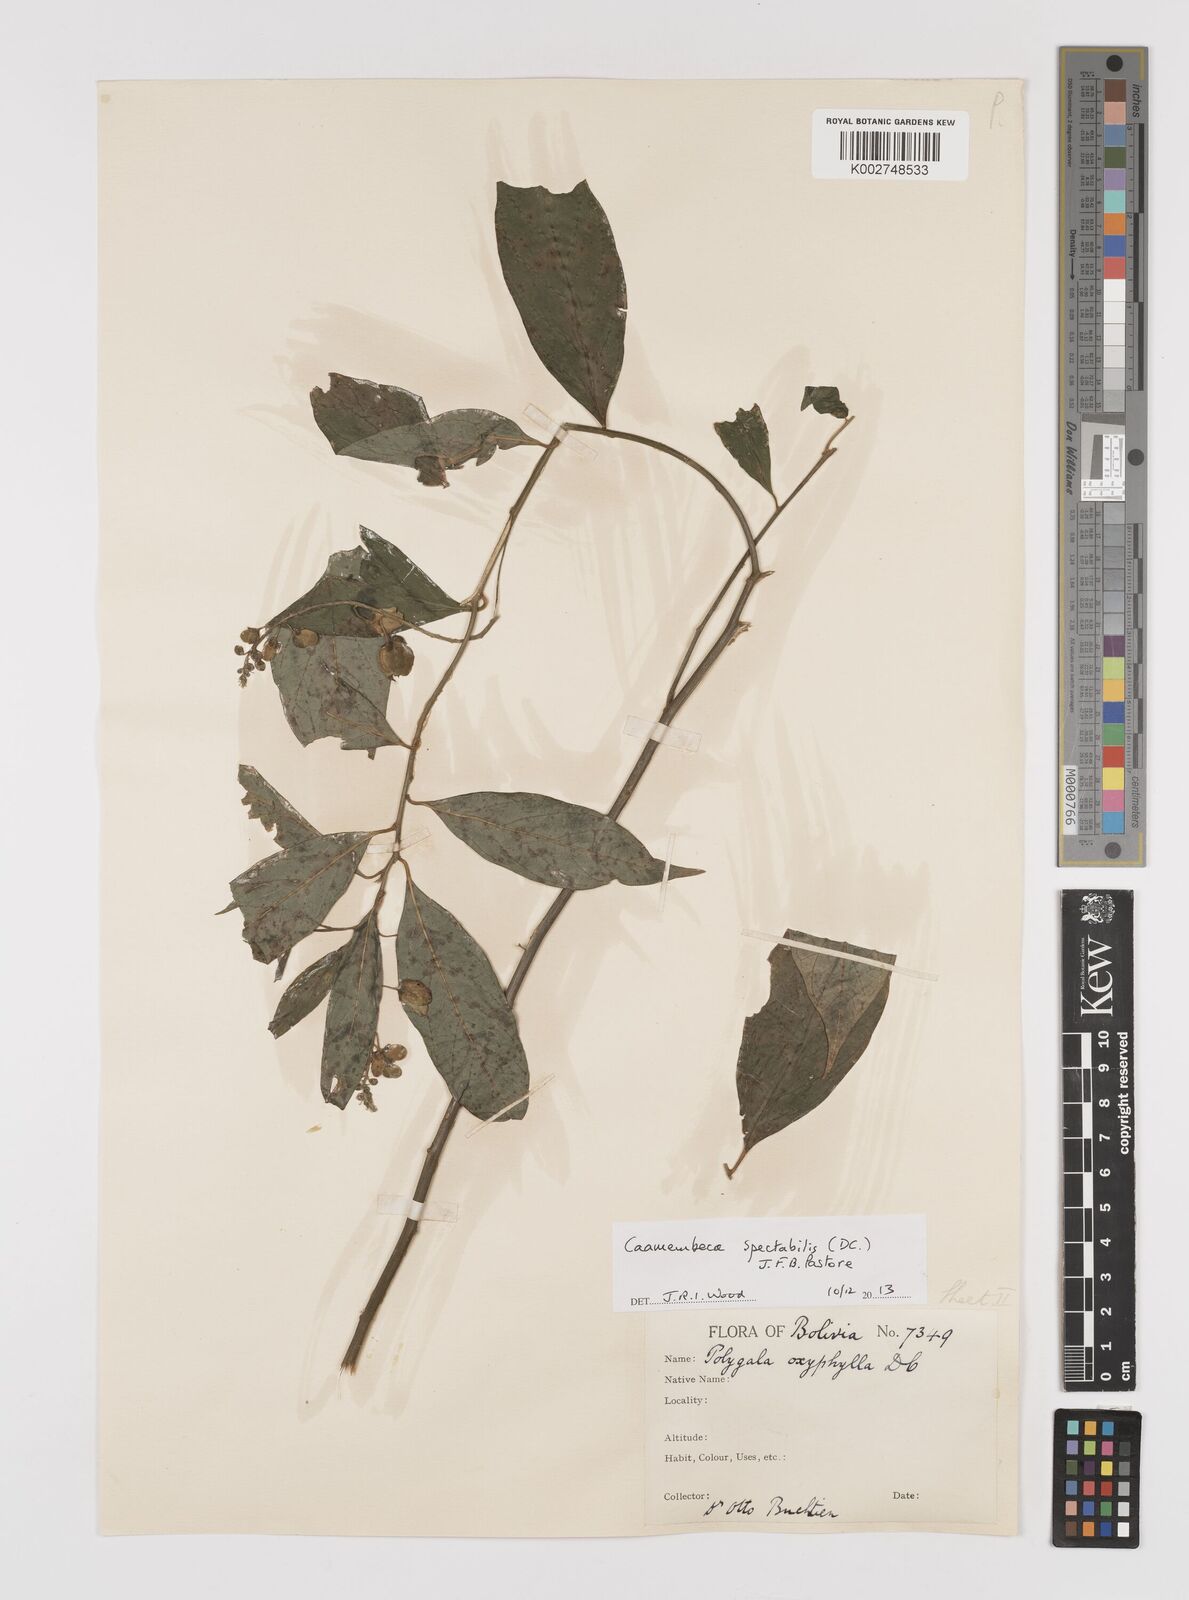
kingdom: Plantae
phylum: Tracheophyta
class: Magnoliopsida
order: Fabales
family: Polygalaceae
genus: Caamembeca
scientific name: Caamembeca spectabilis
